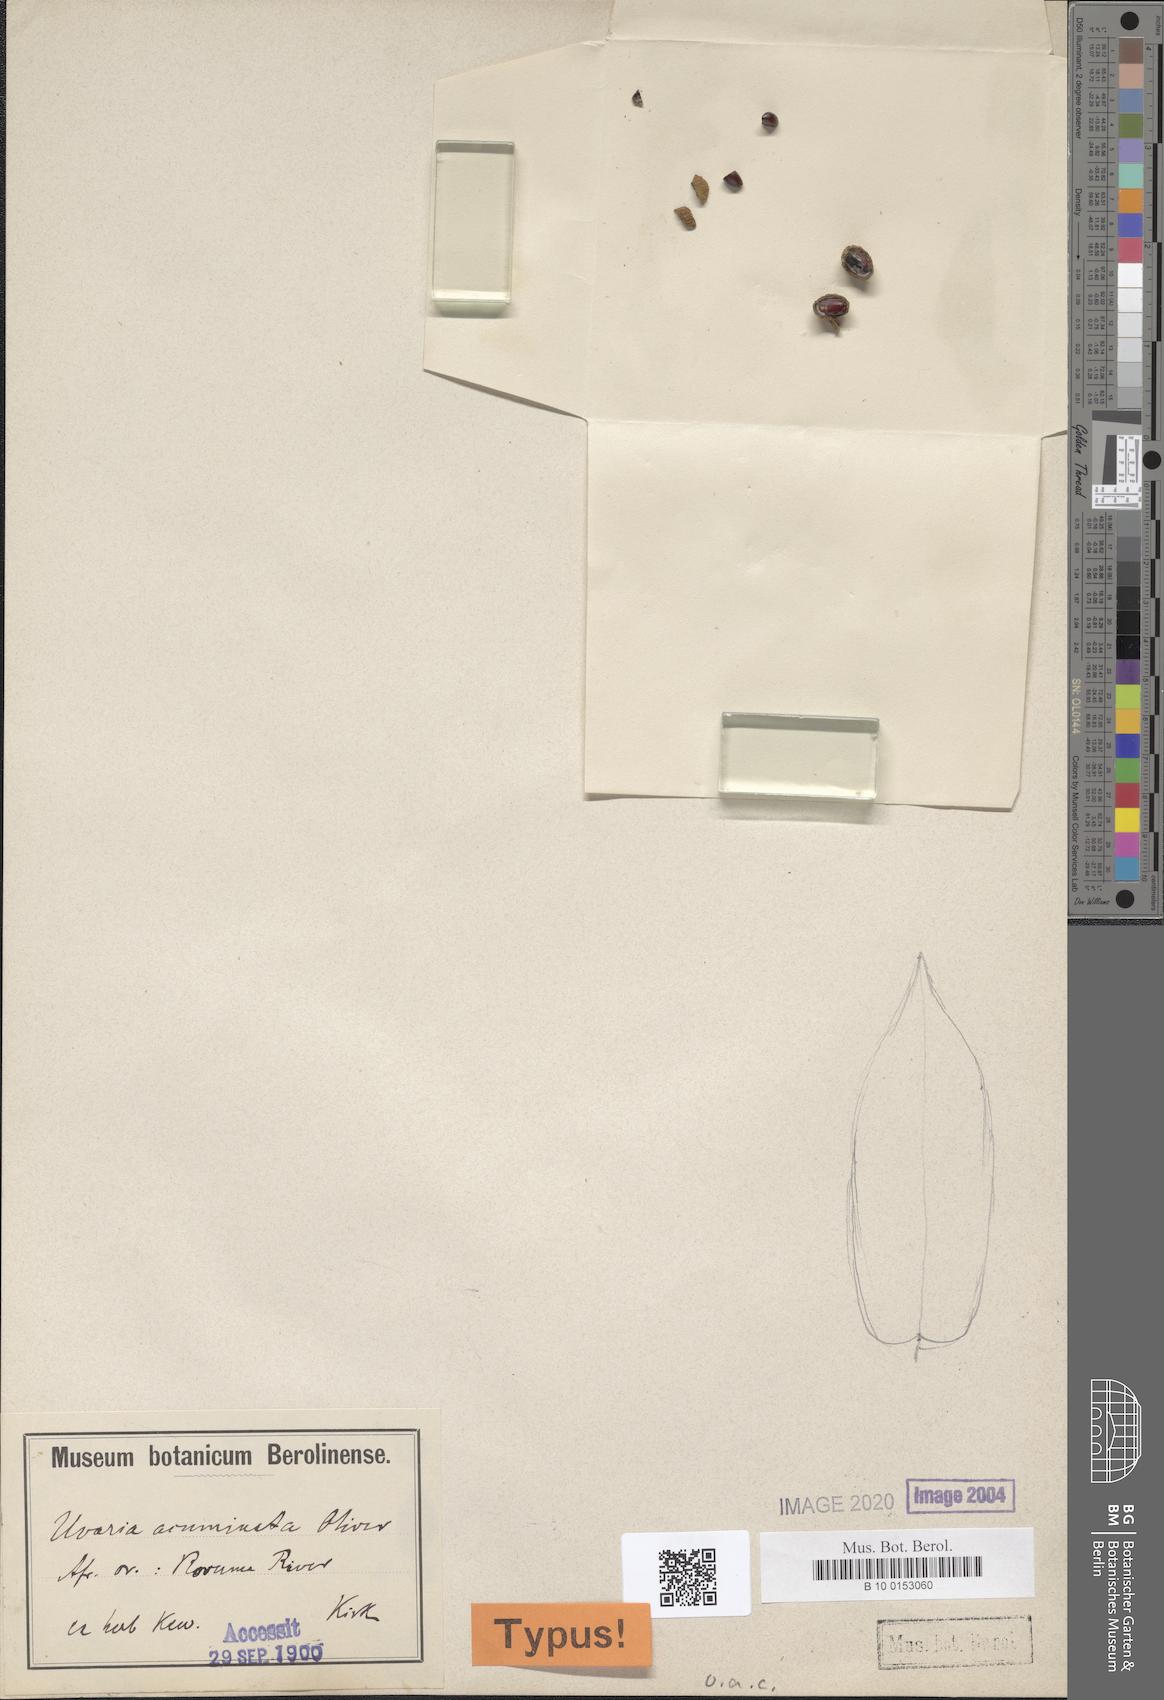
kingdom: Plantae
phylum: Tracheophyta
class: Magnoliopsida
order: Magnoliales
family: Annonaceae
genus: Uvaria
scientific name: Uvaria acuminata
